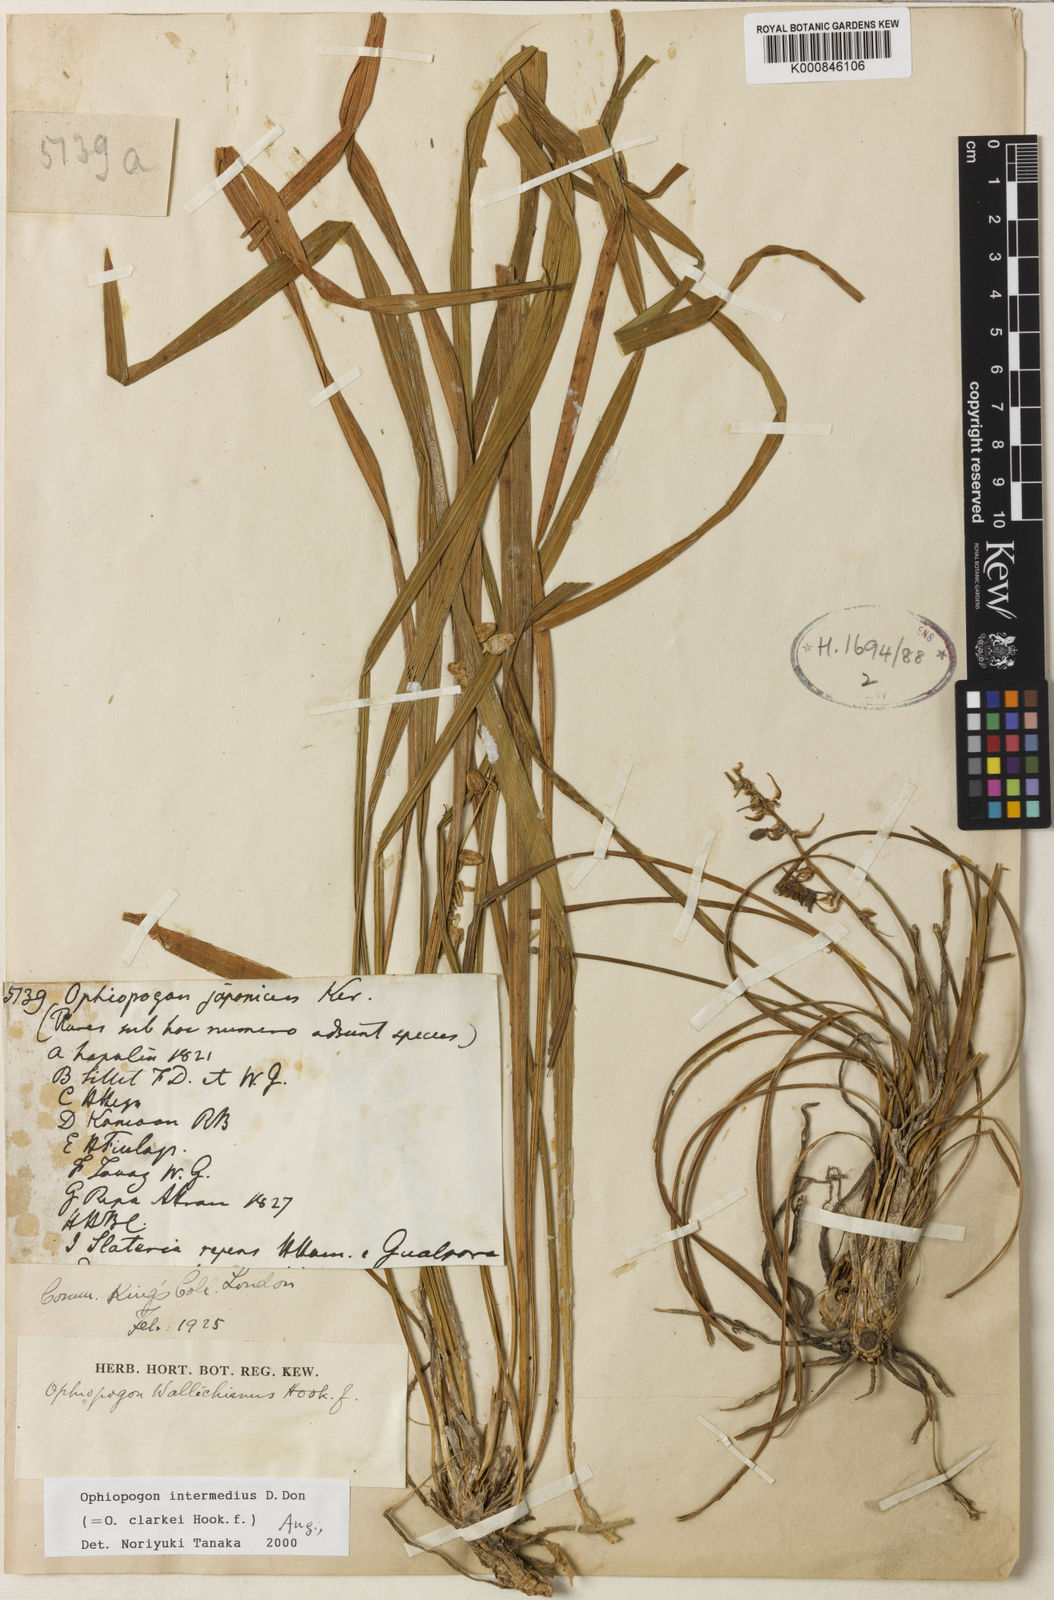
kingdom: Plantae
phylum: Tracheophyta
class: Liliopsida
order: Asparagales
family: Asparagaceae
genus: Ophiopogon
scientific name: Ophiopogon
